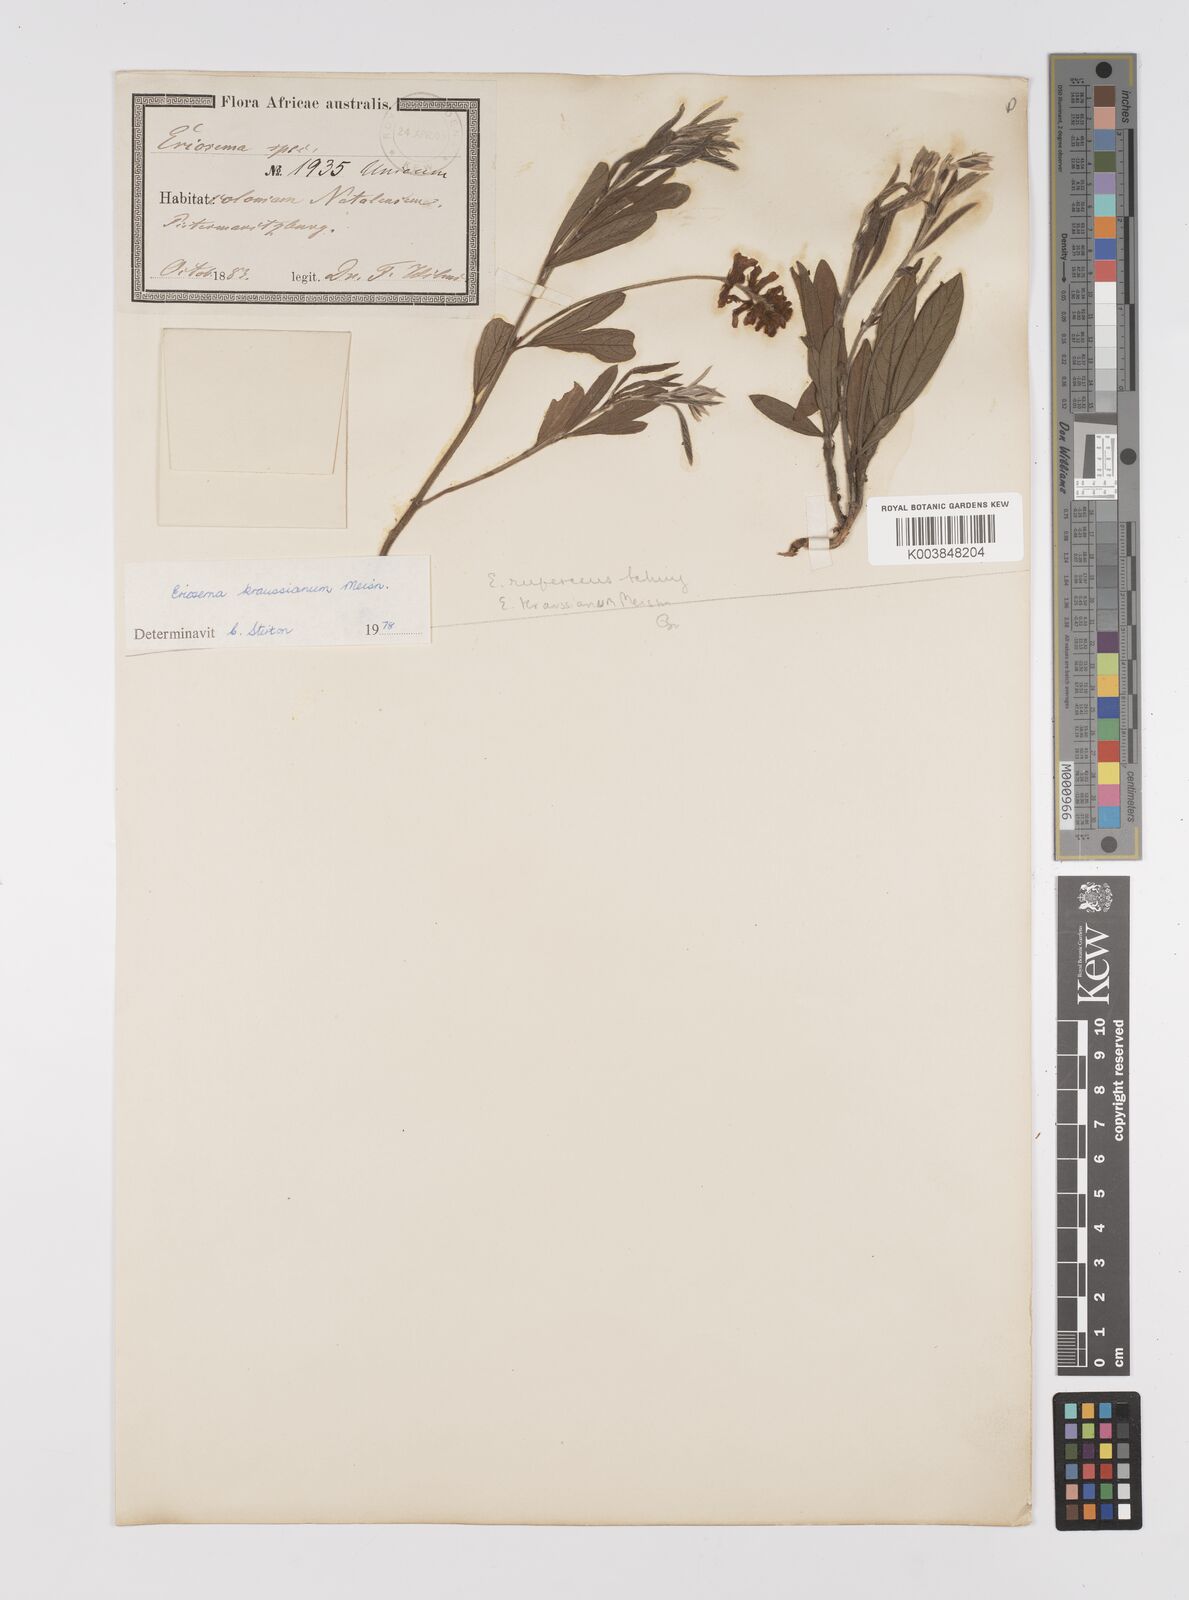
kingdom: Plantae
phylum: Tracheophyta
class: Magnoliopsida
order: Fabales
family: Fabaceae
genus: Eriosema
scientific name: Eriosema kraussianum
